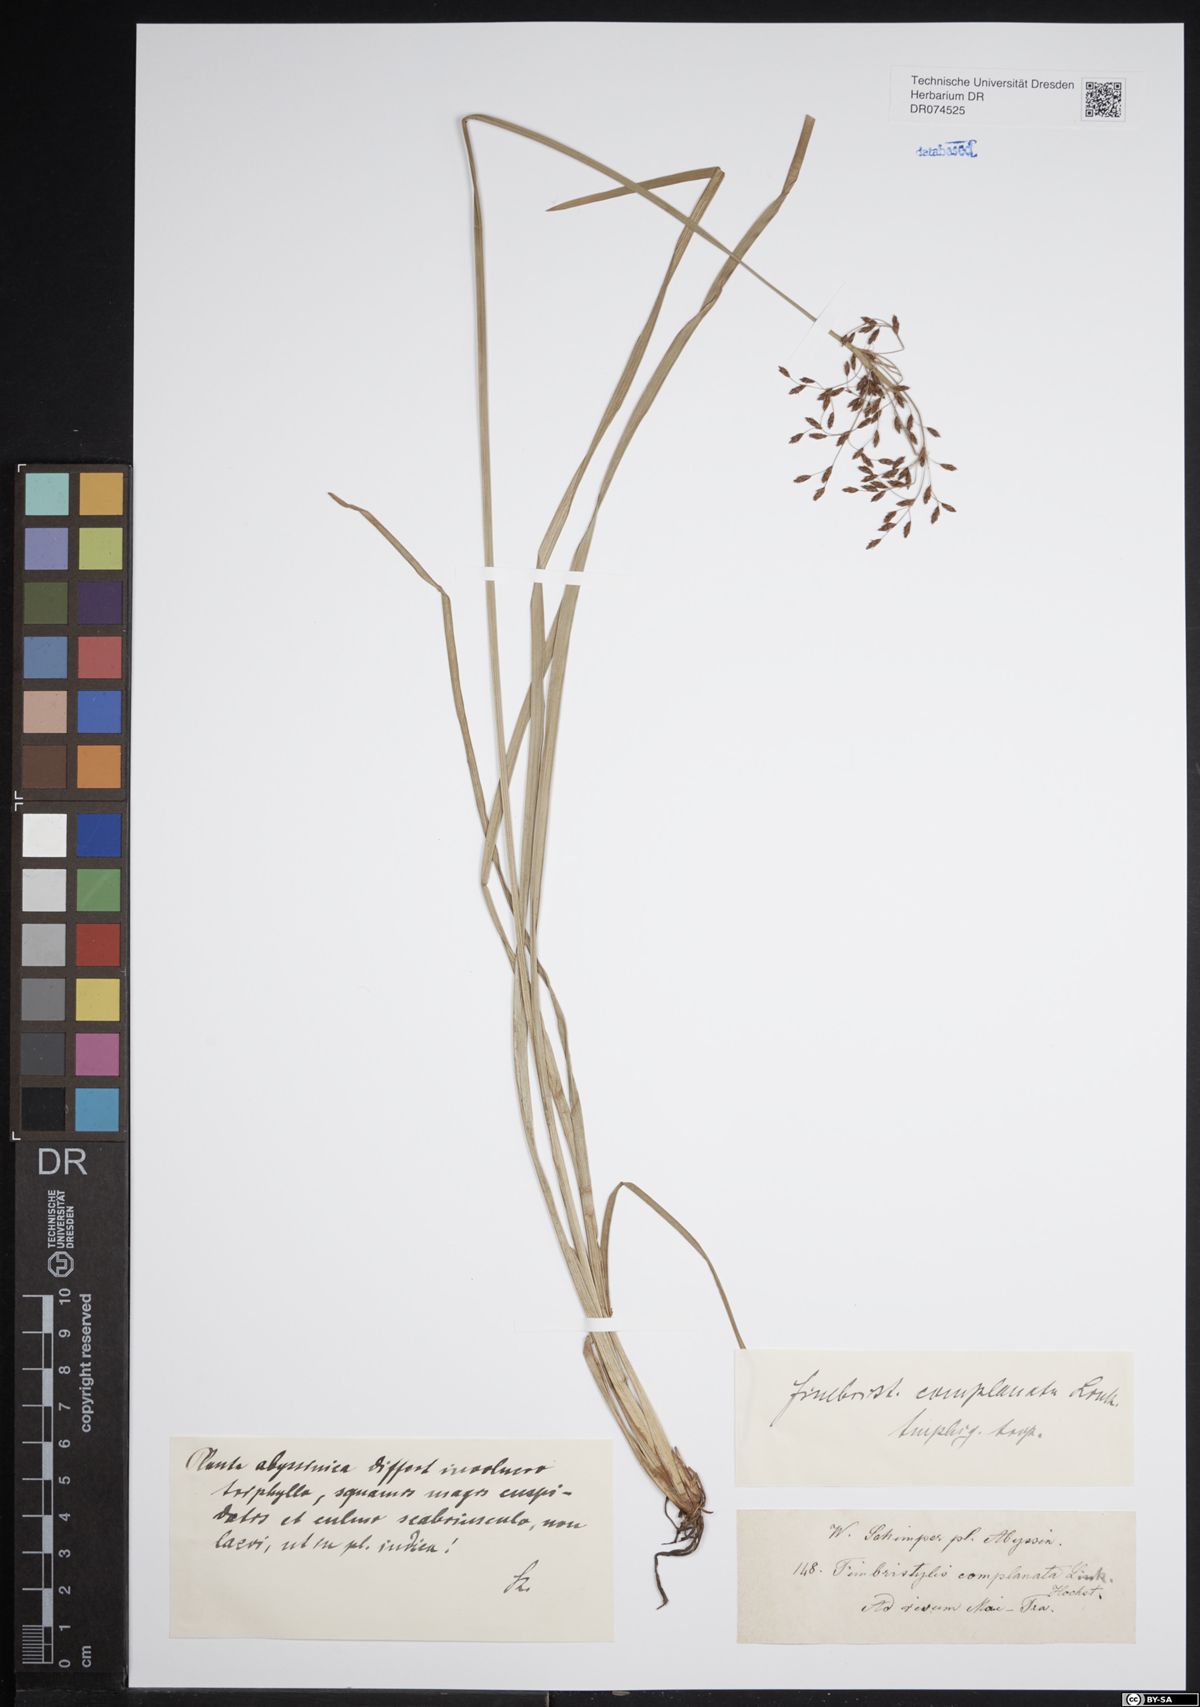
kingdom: Plantae
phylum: Tracheophyta
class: Liliopsida
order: Poales
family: Cyperaceae
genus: Fimbristylis
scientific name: Fimbristylis complanata
